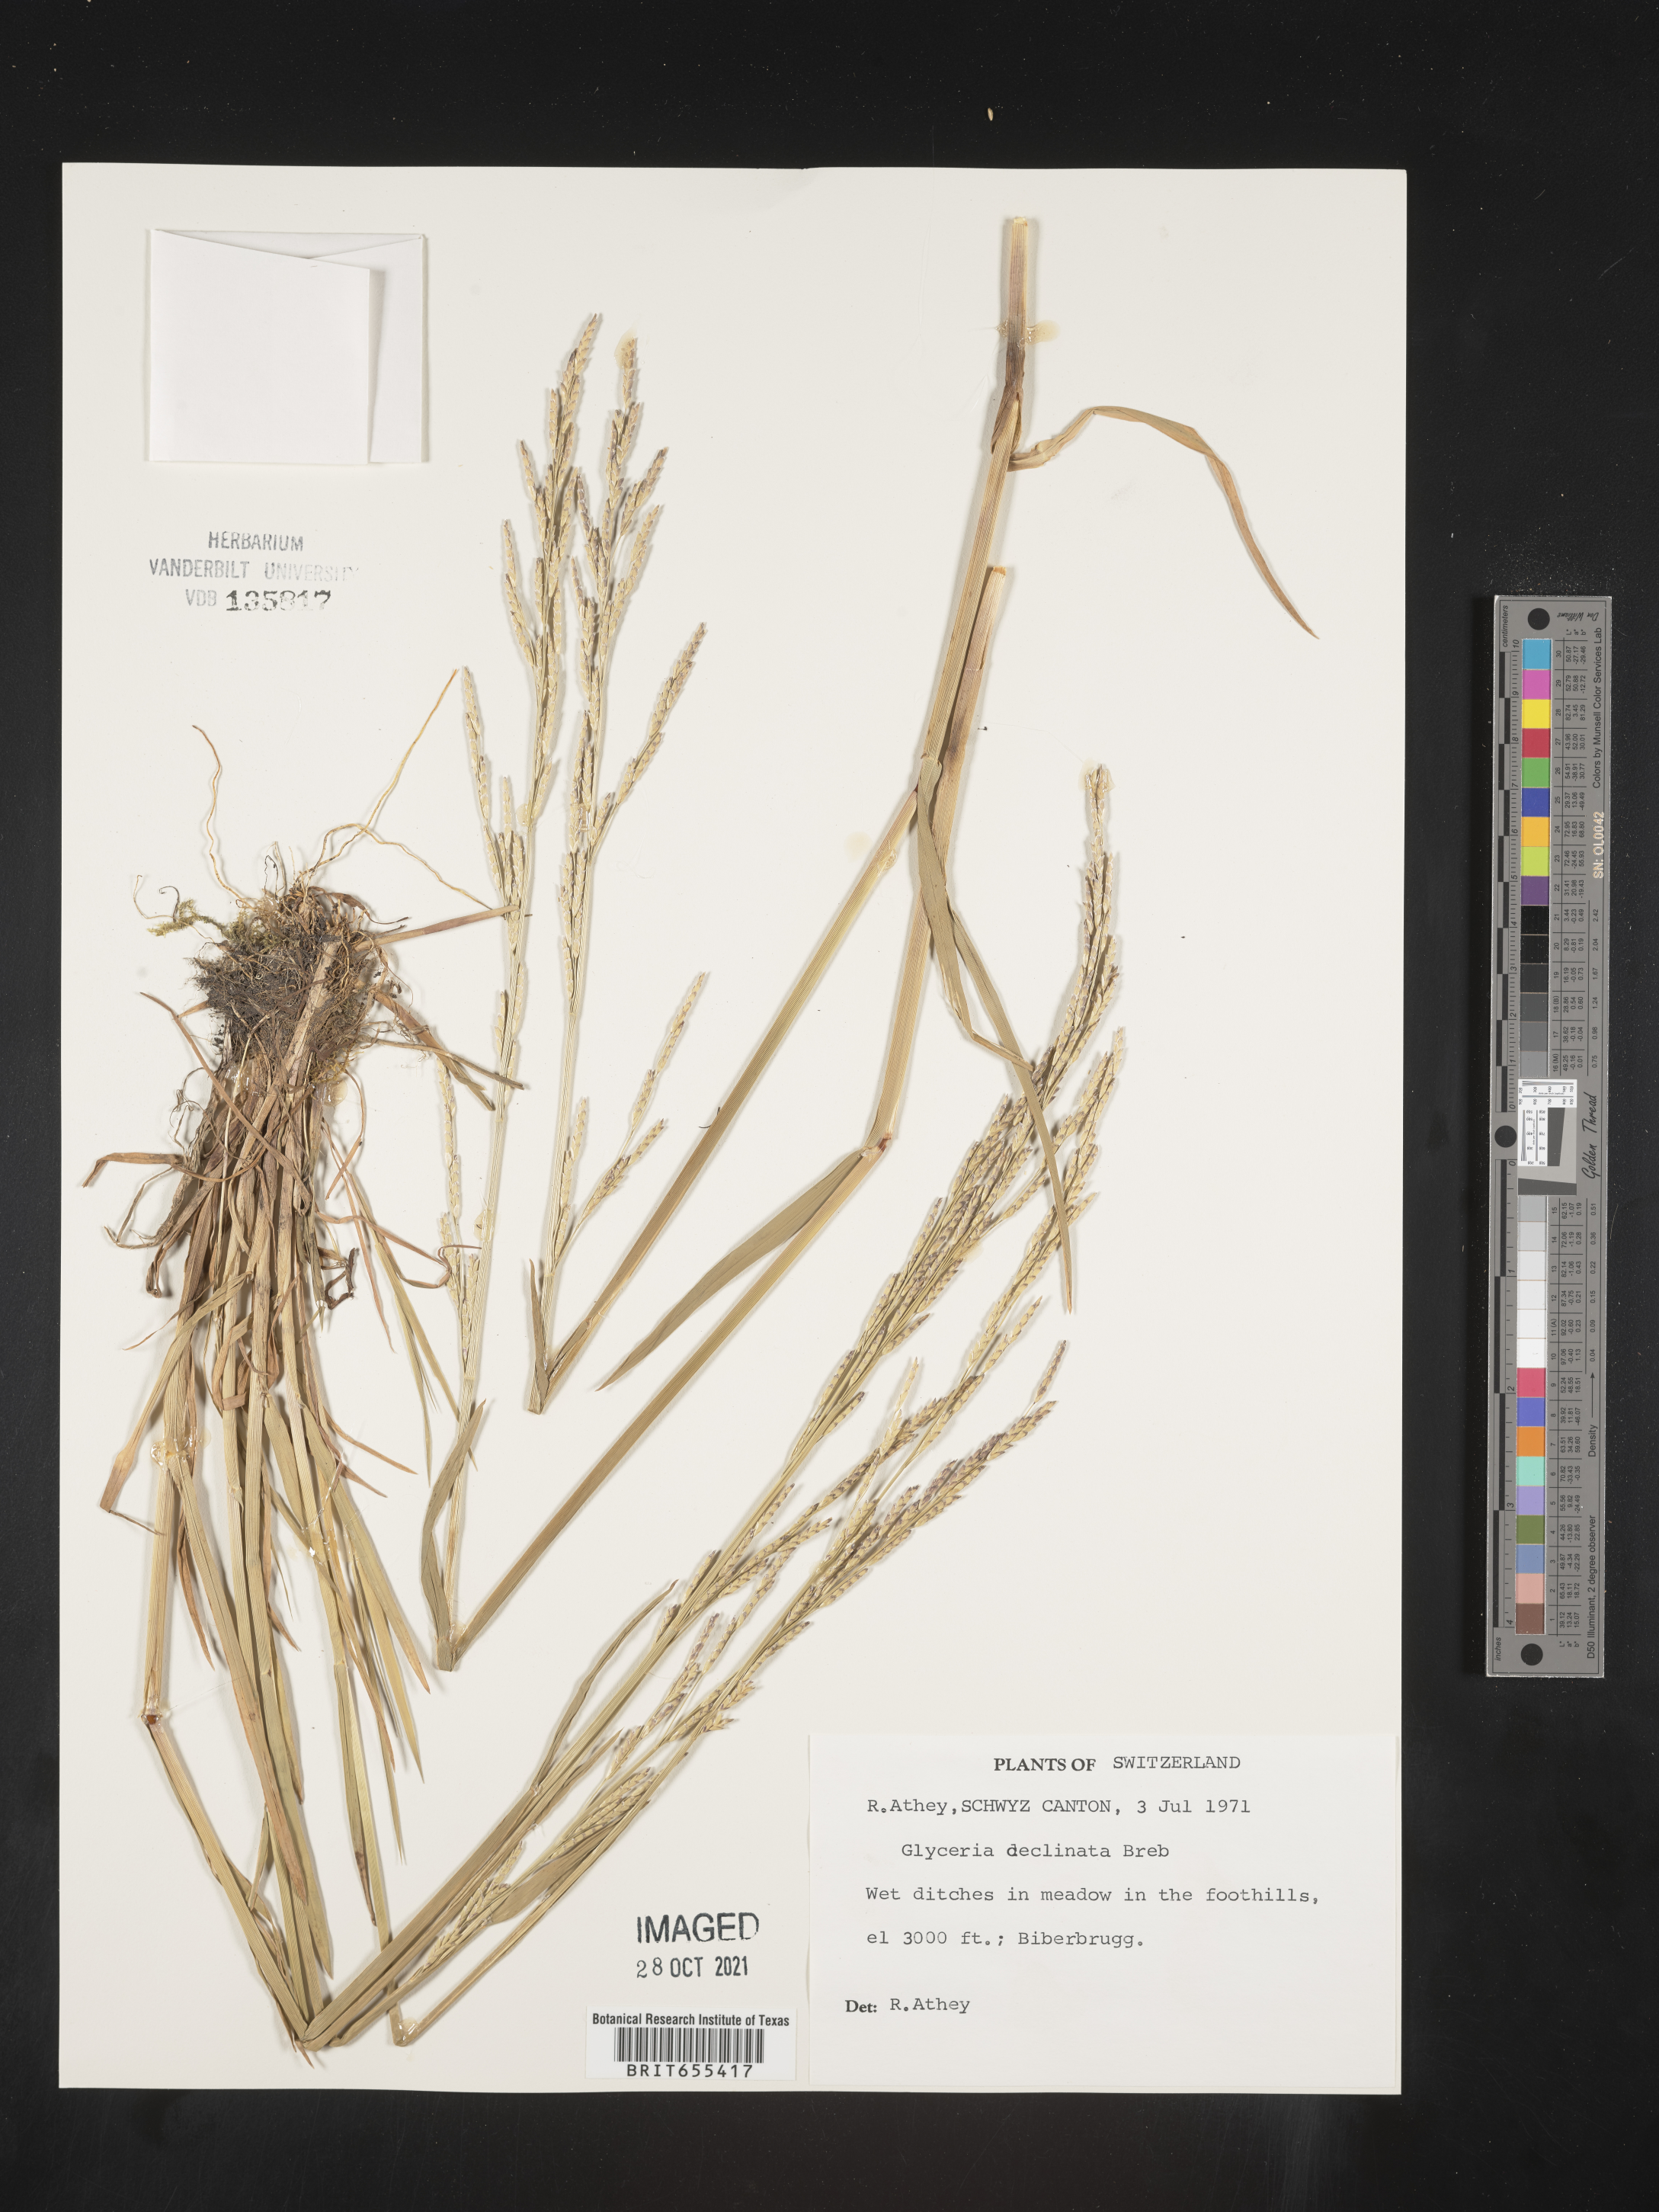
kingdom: Plantae
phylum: Tracheophyta
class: Liliopsida
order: Poales
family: Poaceae
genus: Glyceria
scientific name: Glyceria
